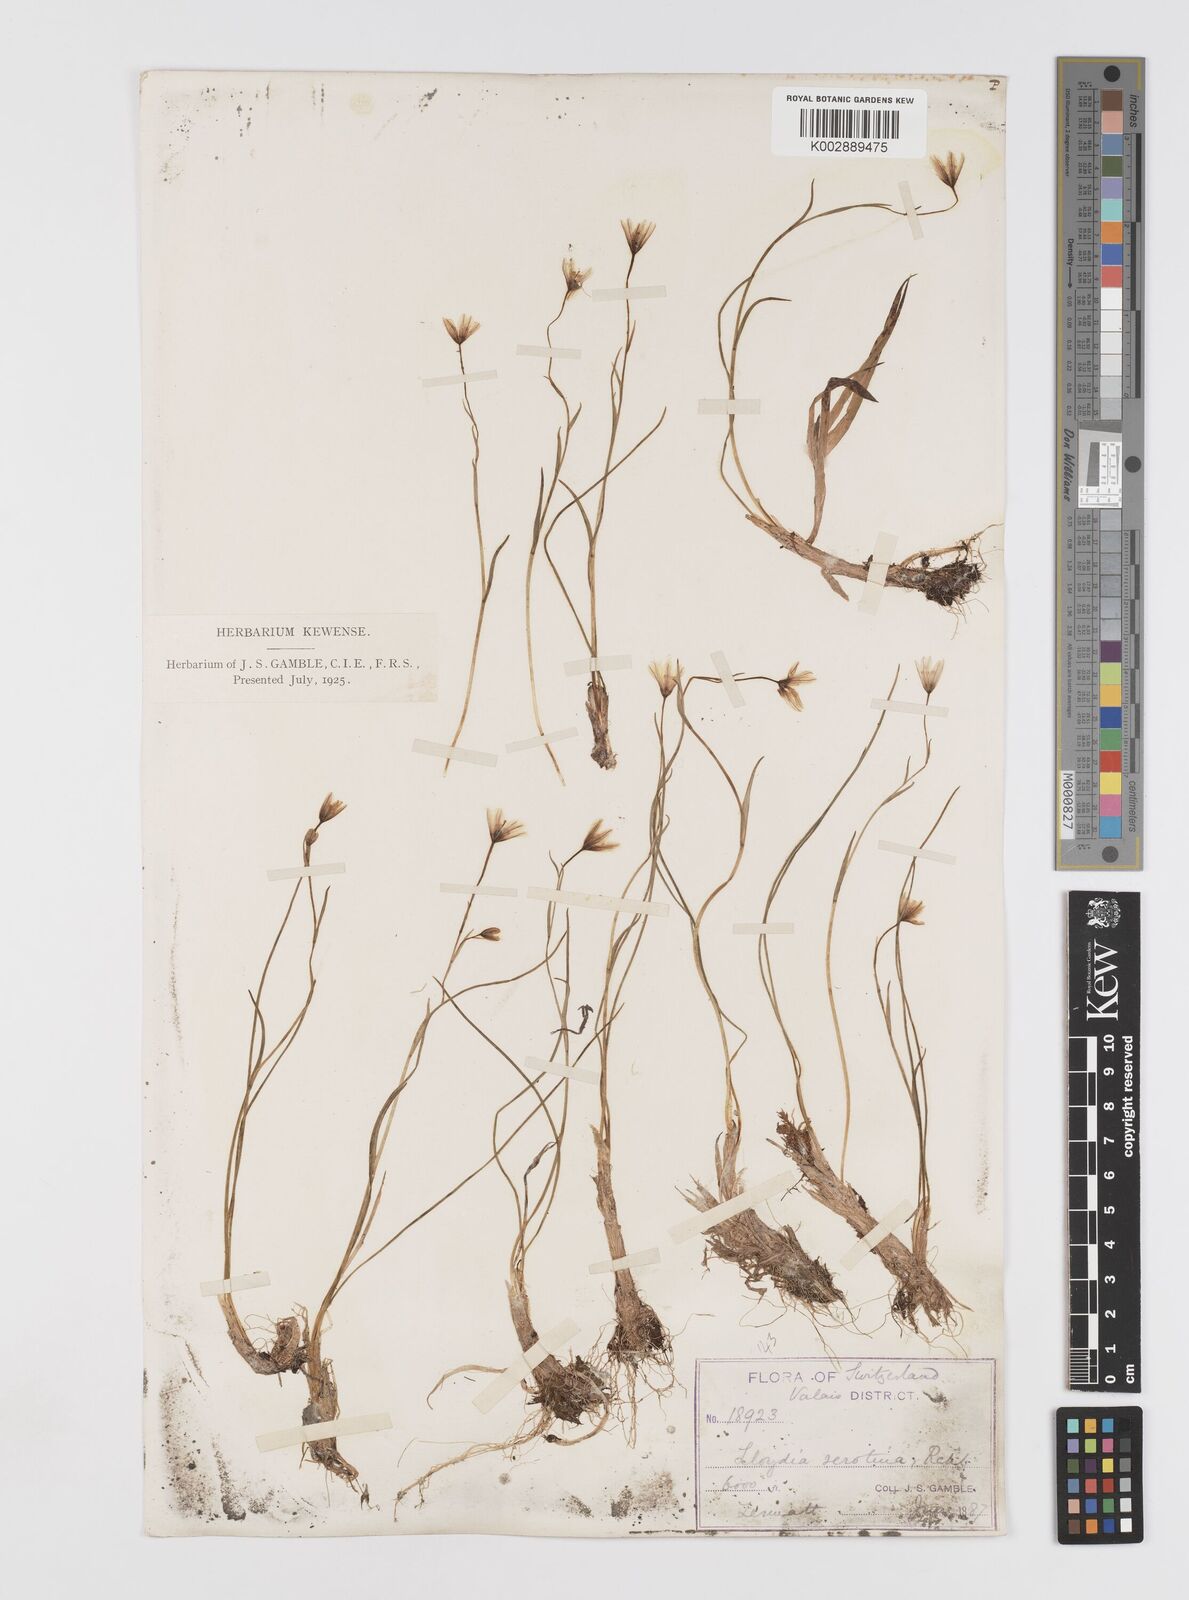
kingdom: Plantae
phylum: Tracheophyta
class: Liliopsida
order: Liliales
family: Liliaceae
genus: Gagea
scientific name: Gagea
